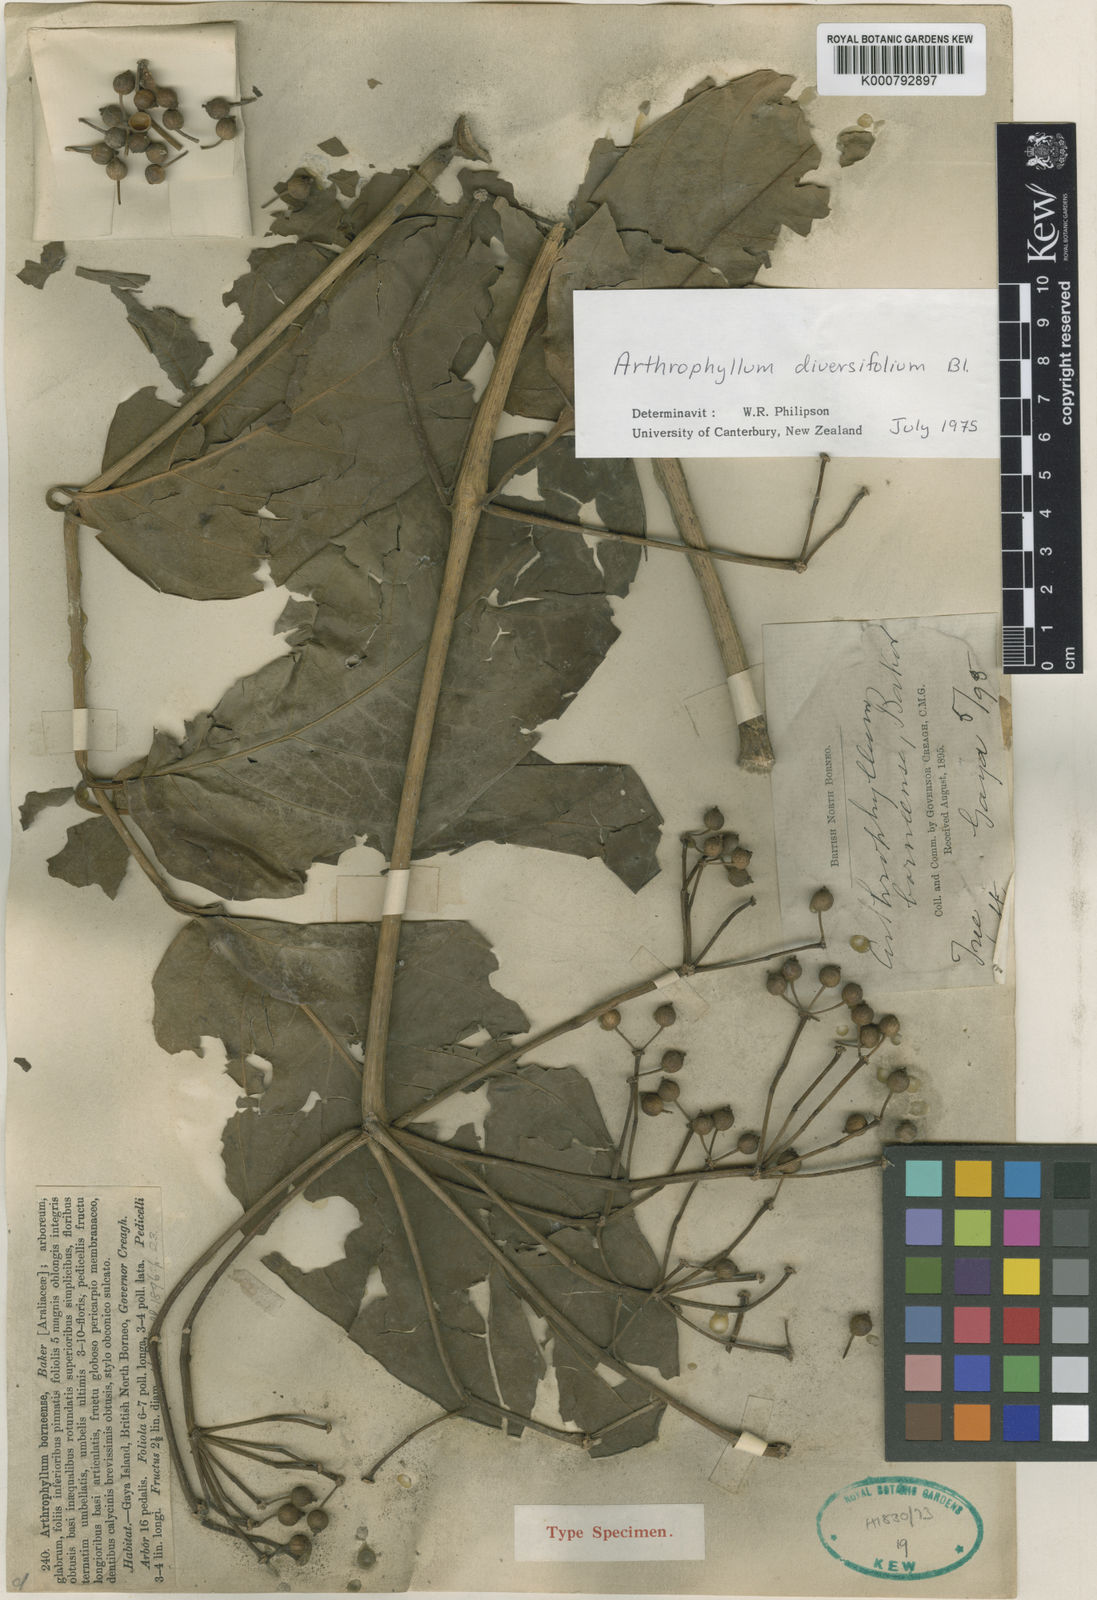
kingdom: Plantae
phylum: Tracheophyta
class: Magnoliopsida
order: Apiales
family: Araliaceae
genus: Polyscias
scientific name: Polyscias jackiana
